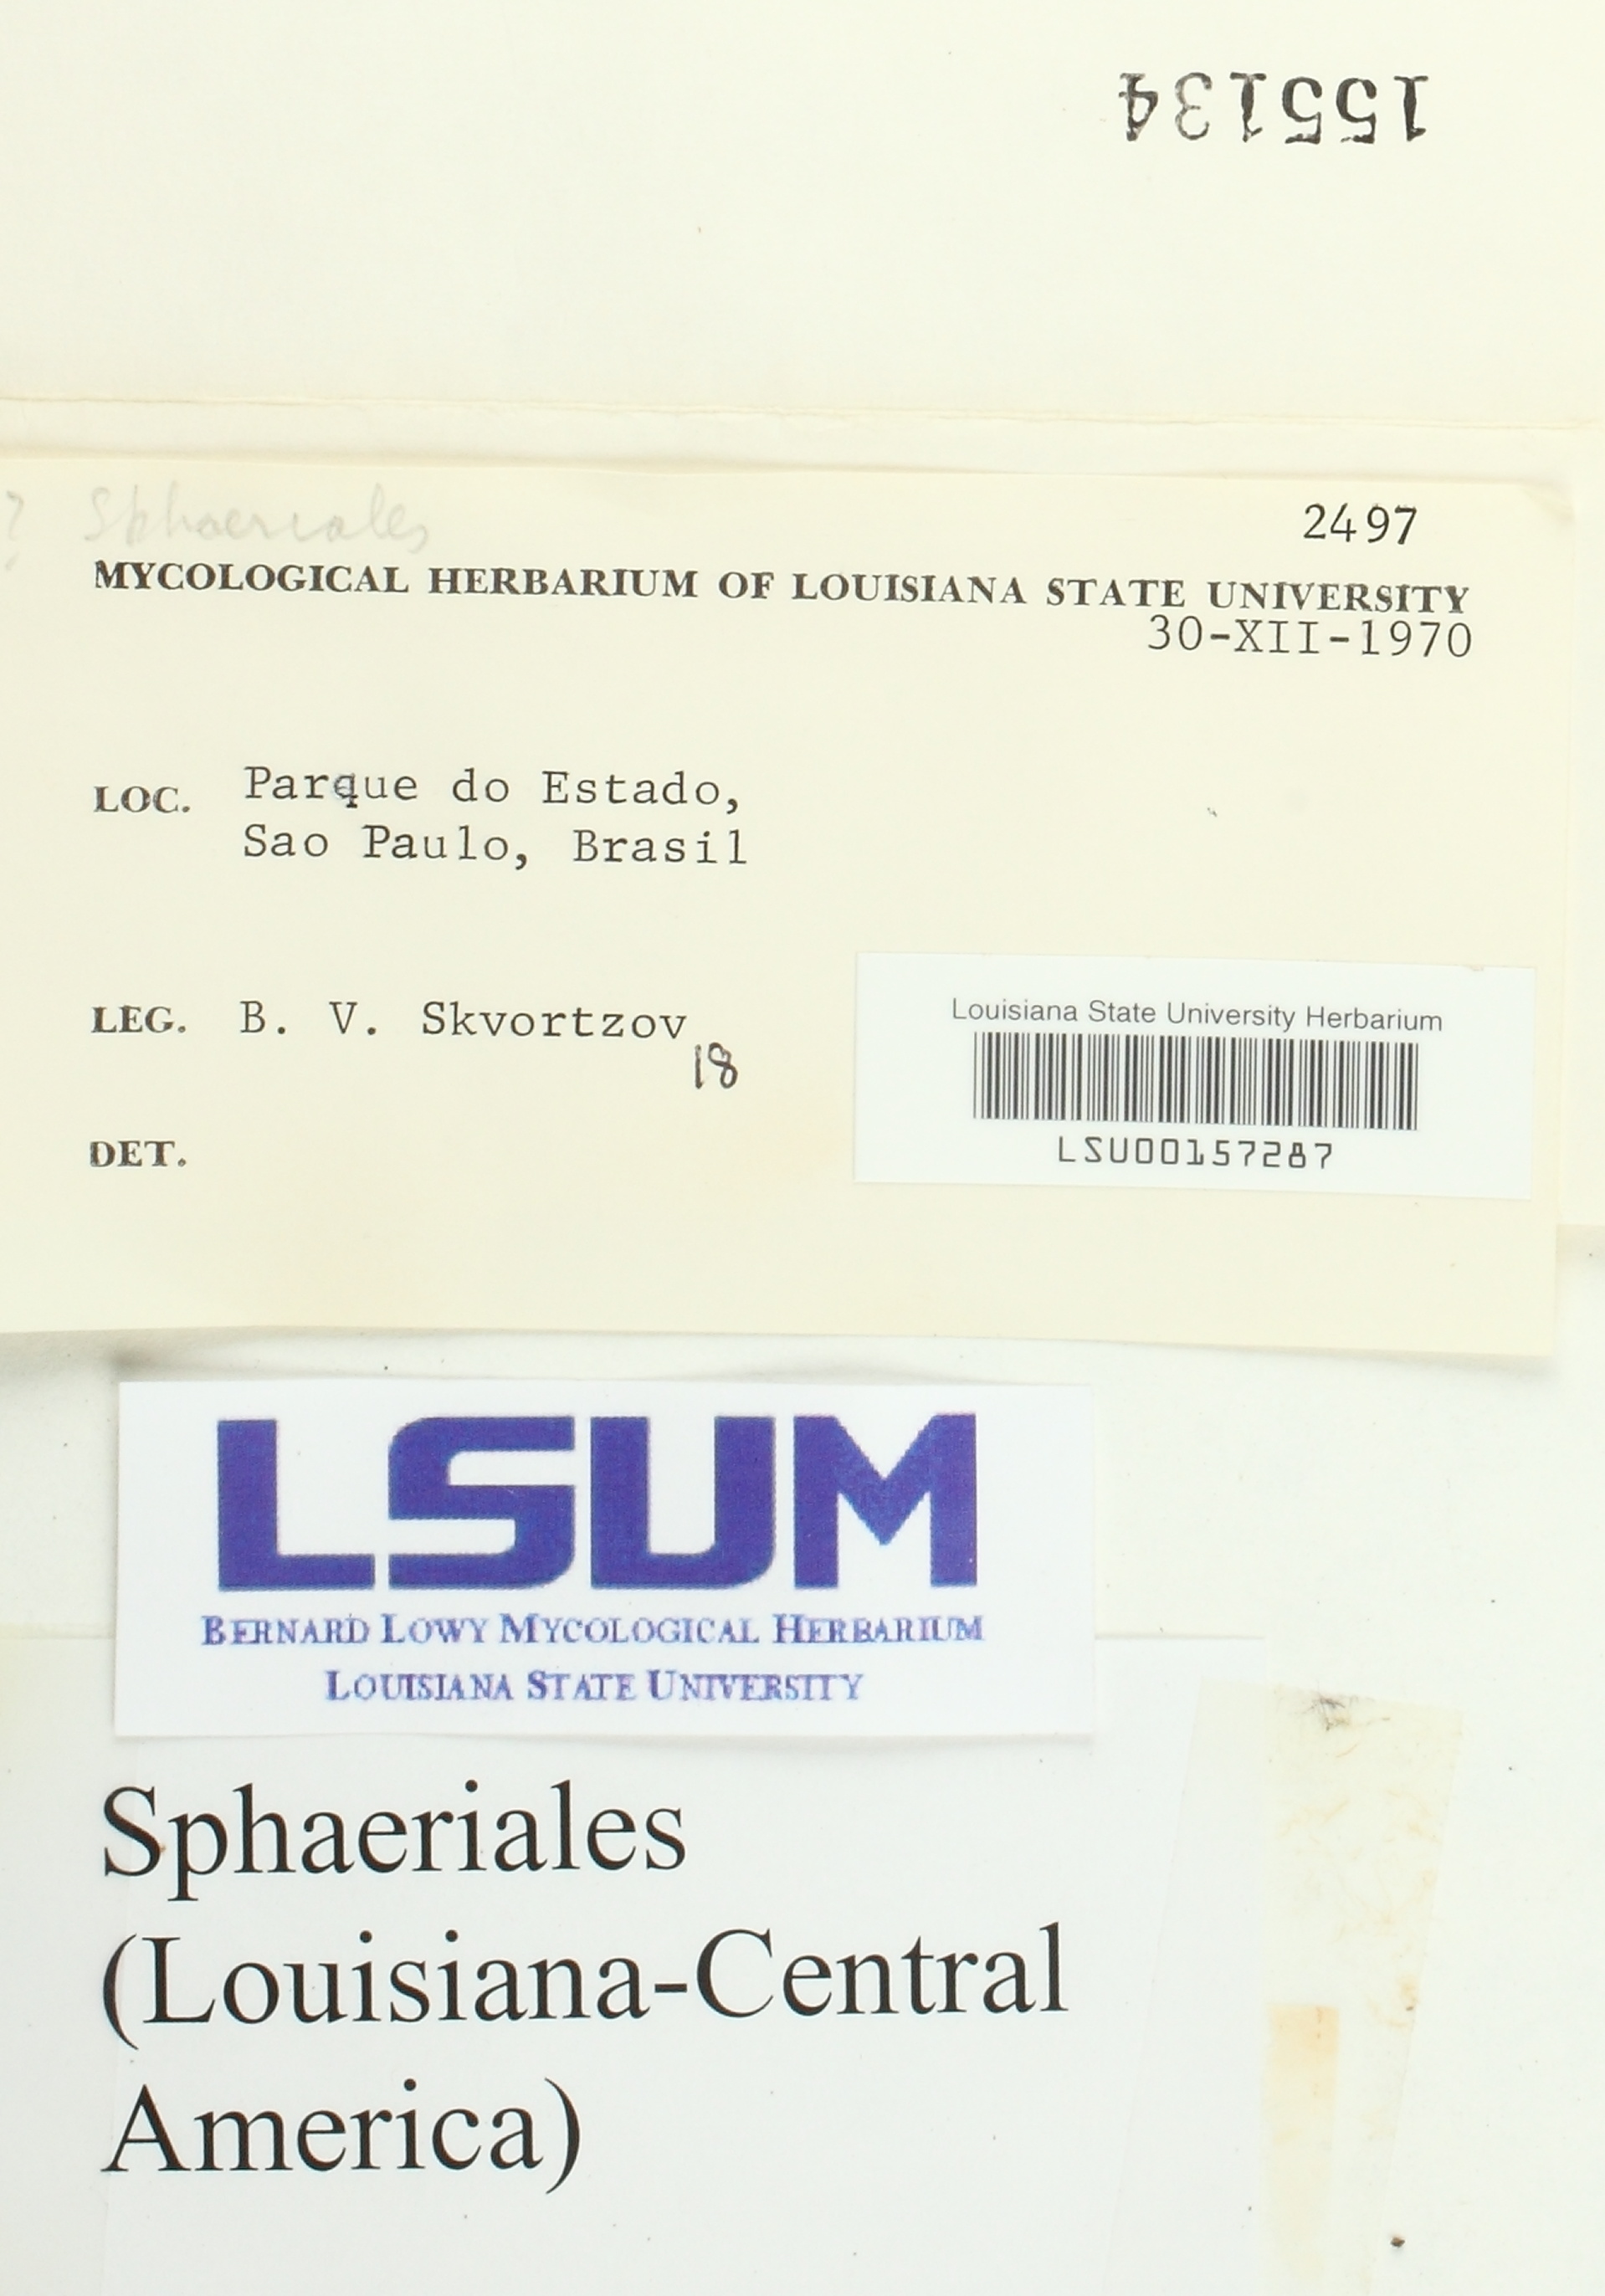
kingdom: Fungi
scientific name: Fungi
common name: Fungi
